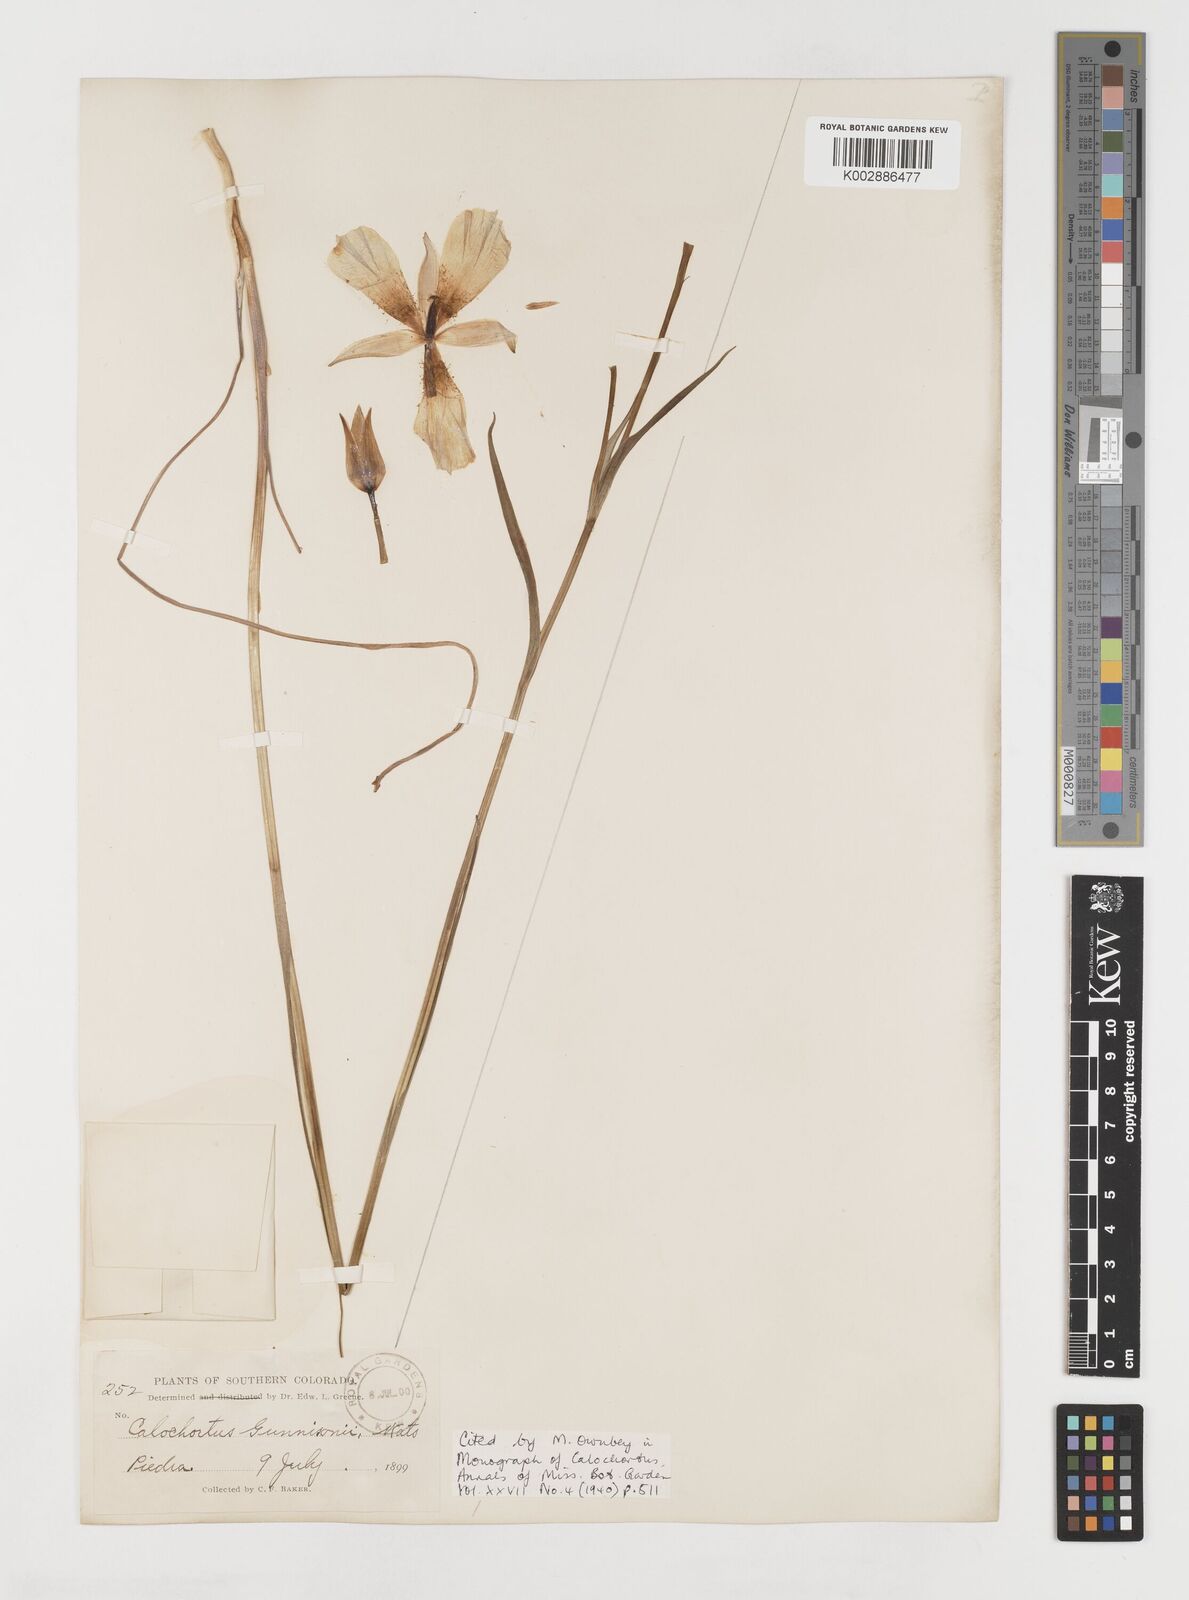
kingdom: Plantae
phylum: Tracheophyta
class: Liliopsida
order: Liliales
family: Liliaceae
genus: Calochortus
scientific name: Calochortus gunnisonii
